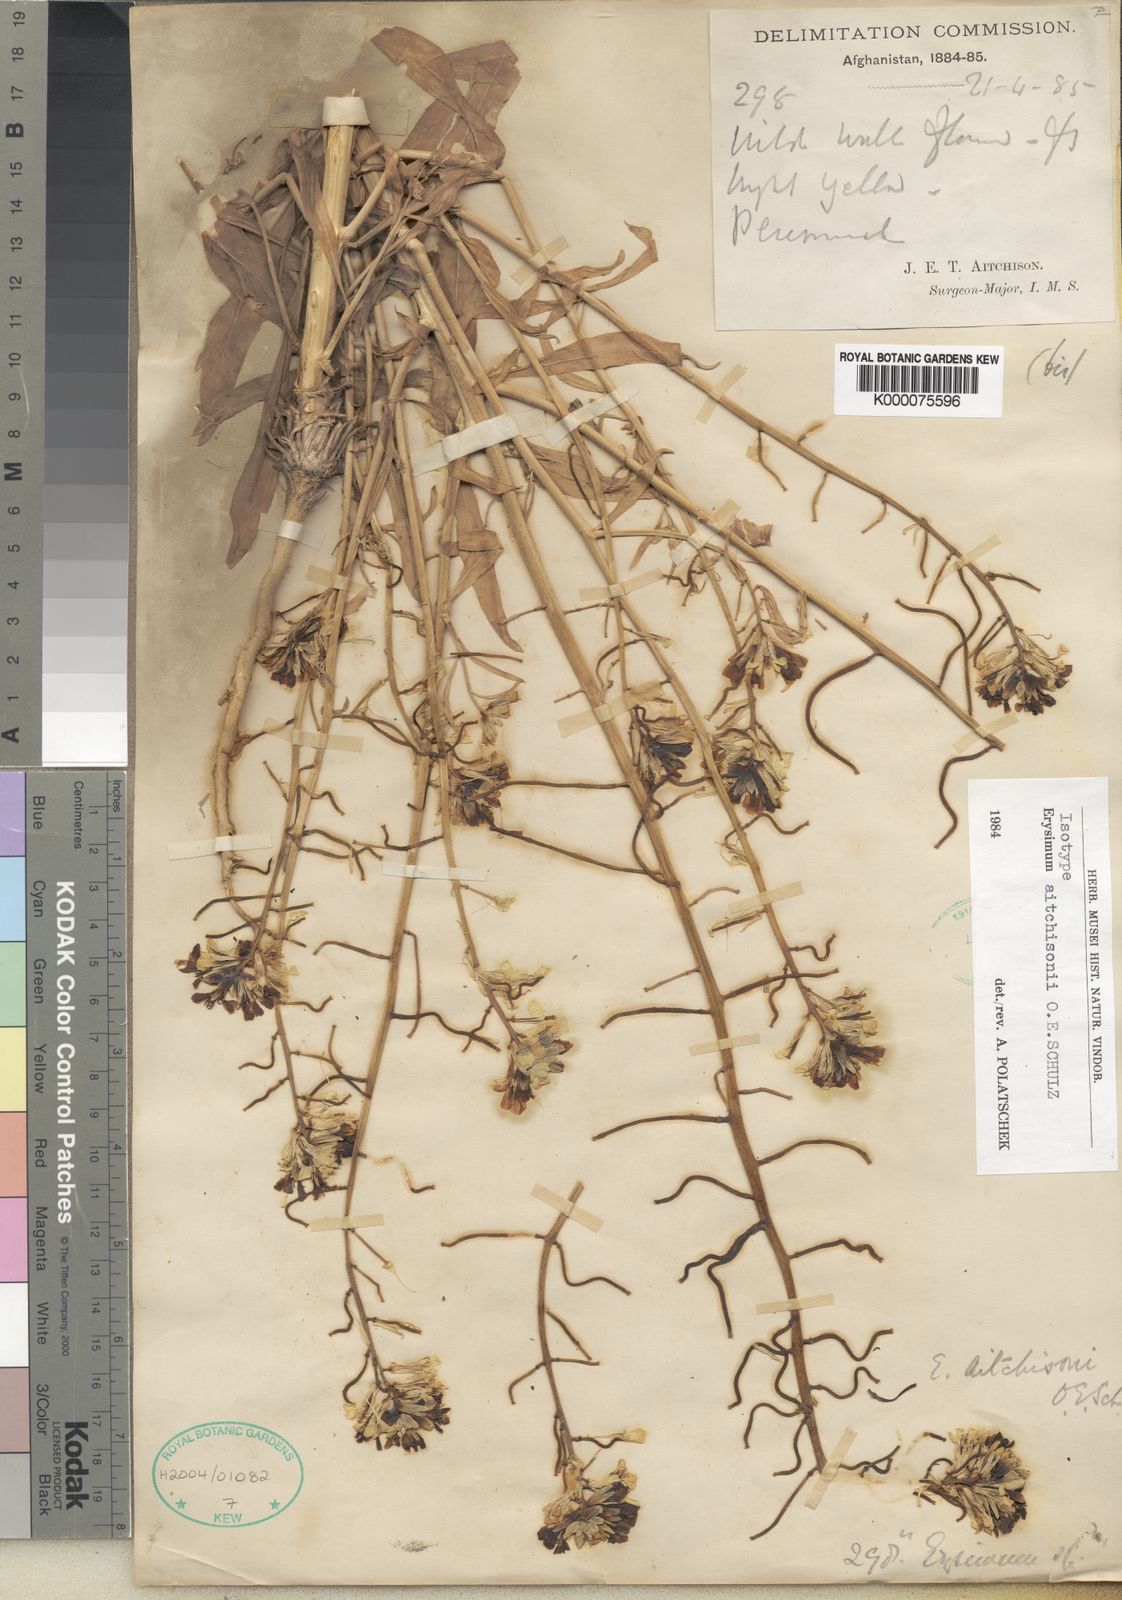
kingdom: Plantae
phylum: Tracheophyta
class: Magnoliopsida
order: Brassicales
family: Brassicaceae
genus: Erysimum
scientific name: Erysimum
